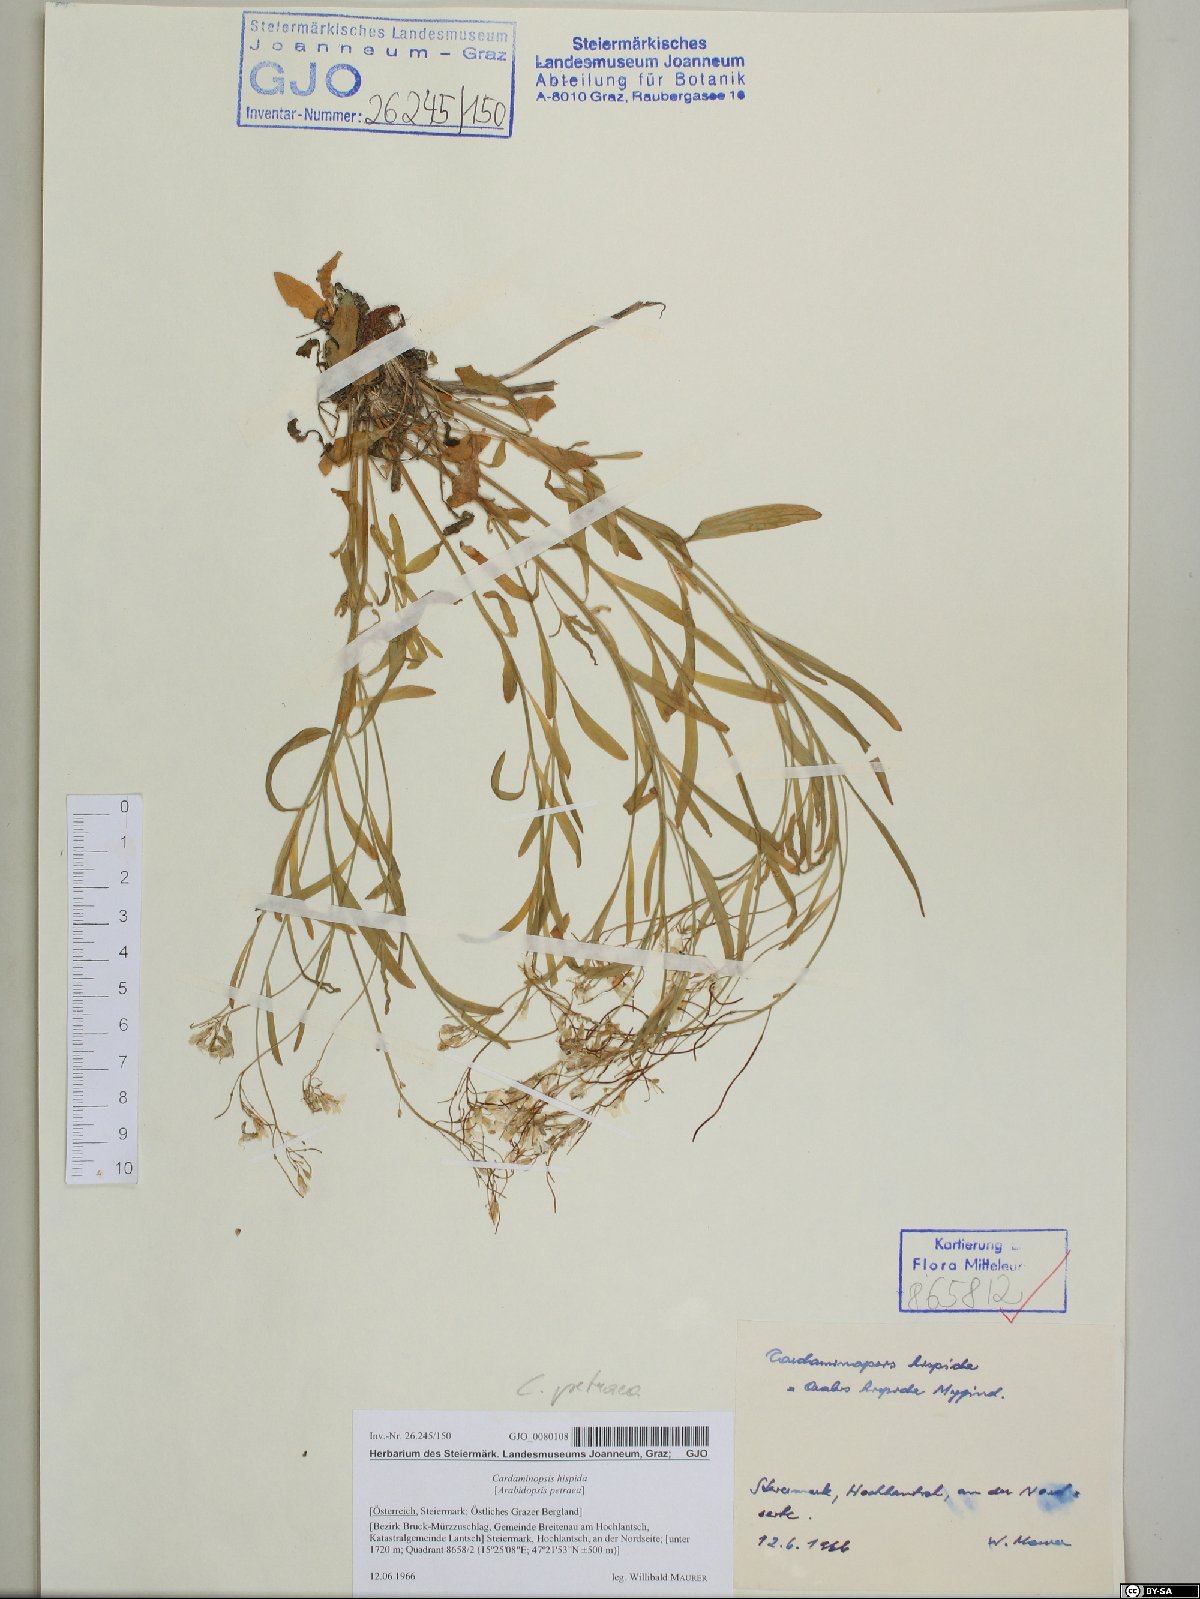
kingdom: Plantae
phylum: Tracheophyta
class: Magnoliopsida
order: Brassicales
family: Brassicaceae
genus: Arabidopsis
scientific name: Arabidopsis lyrata
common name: Lyrate rockcress
